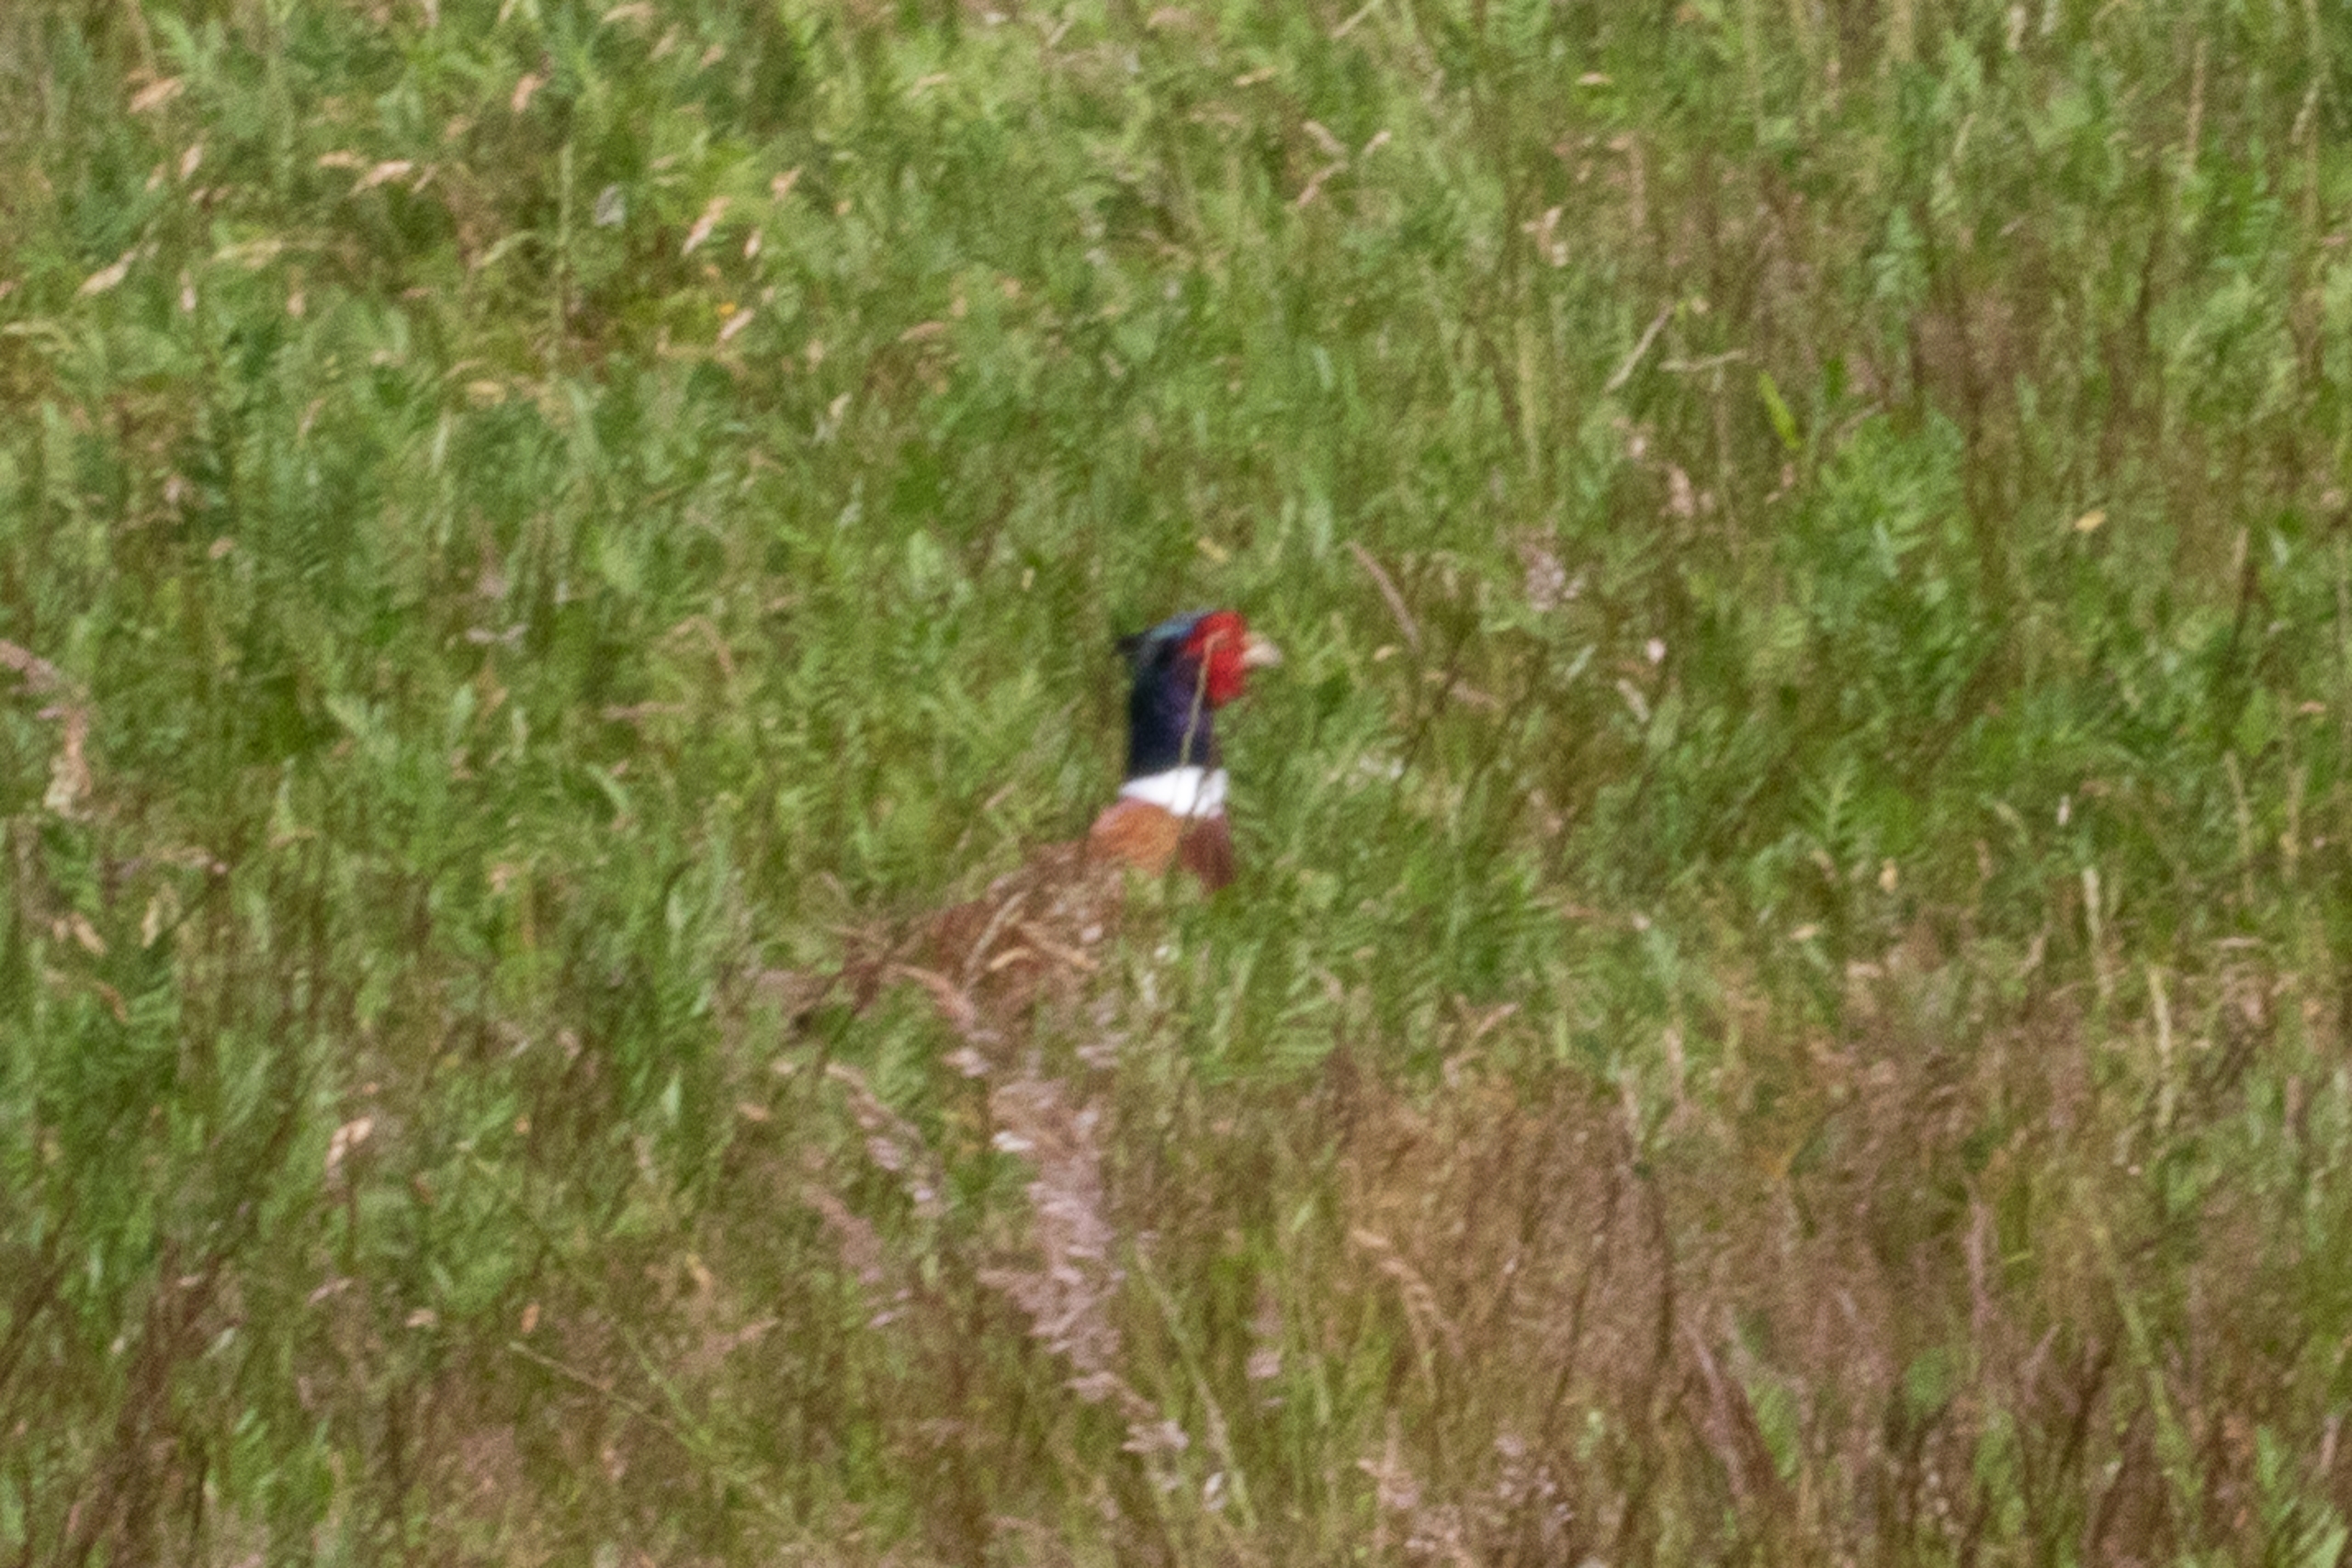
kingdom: Animalia
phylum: Chordata
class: Aves
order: Galliformes
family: Phasianidae
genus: Phasianus
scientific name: Phasianus colchicus
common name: Fasan
